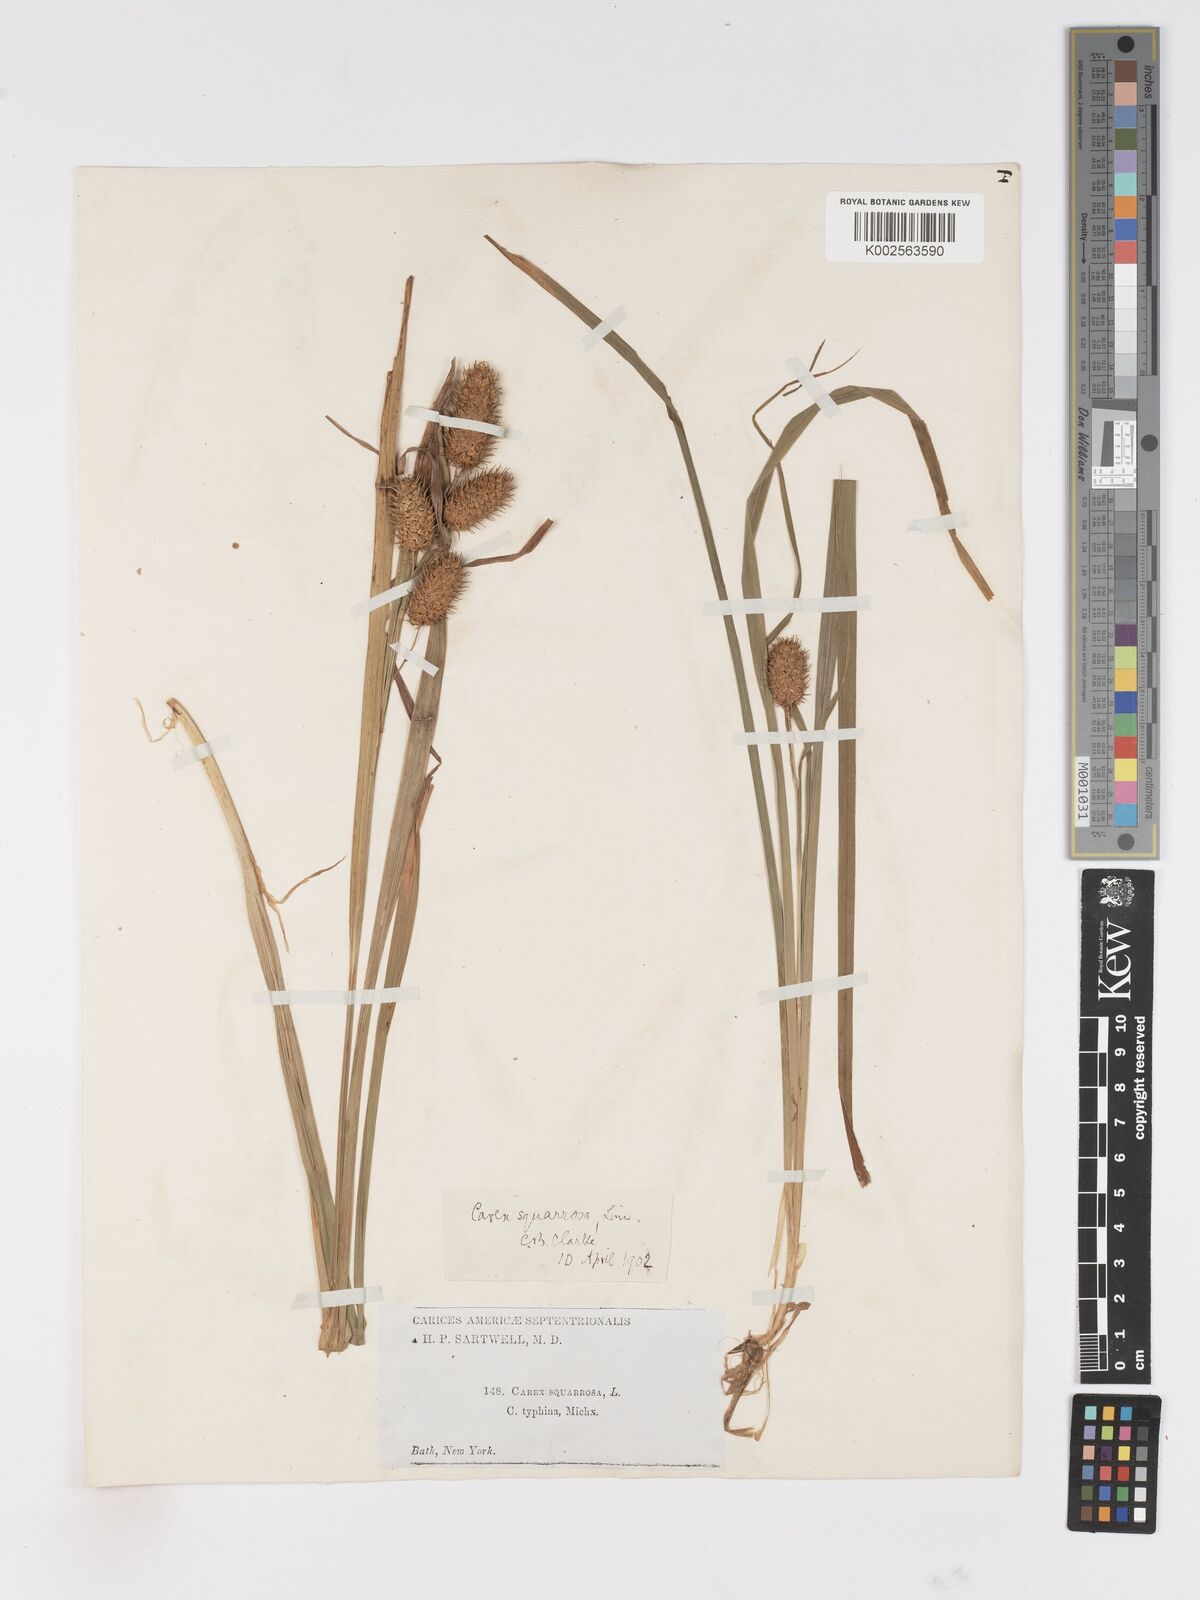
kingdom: Plantae
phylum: Tracheophyta
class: Liliopsida
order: Poales
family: Cyperaceae
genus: Carex
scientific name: Carex typhina
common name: Cattail sedge
